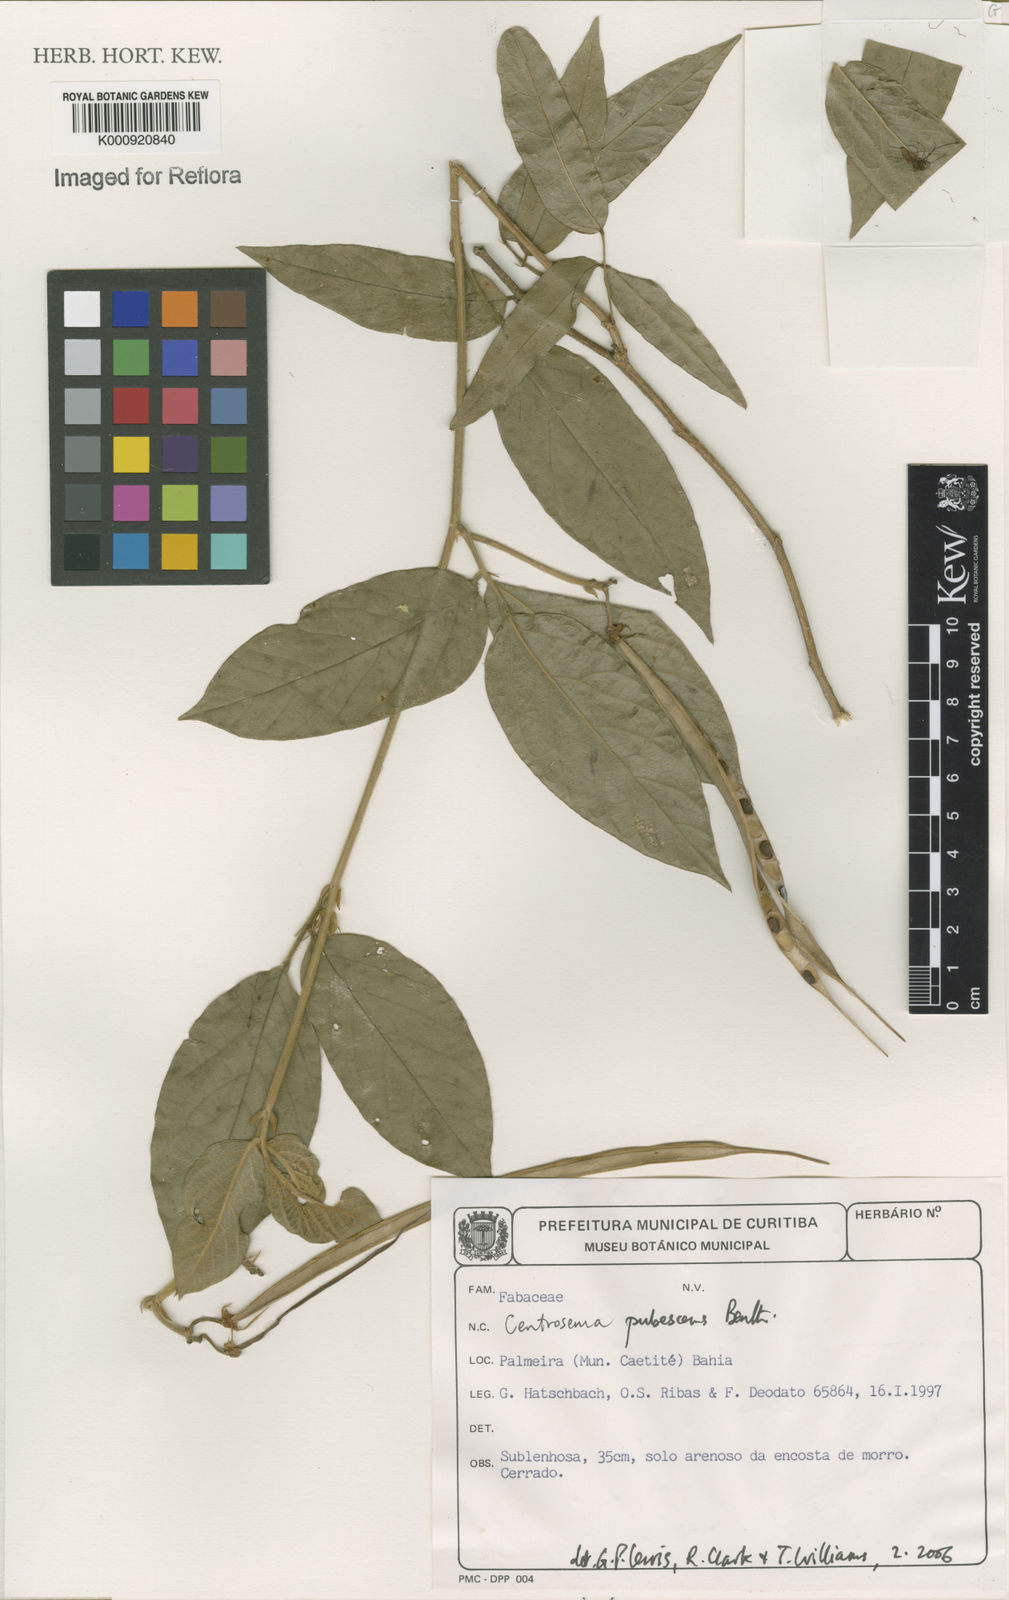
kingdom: Plantae
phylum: Tracheophyta
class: Magnoliopsida
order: Fabales
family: Fabaceae
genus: Centrosema
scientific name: Centrosema pubescens
